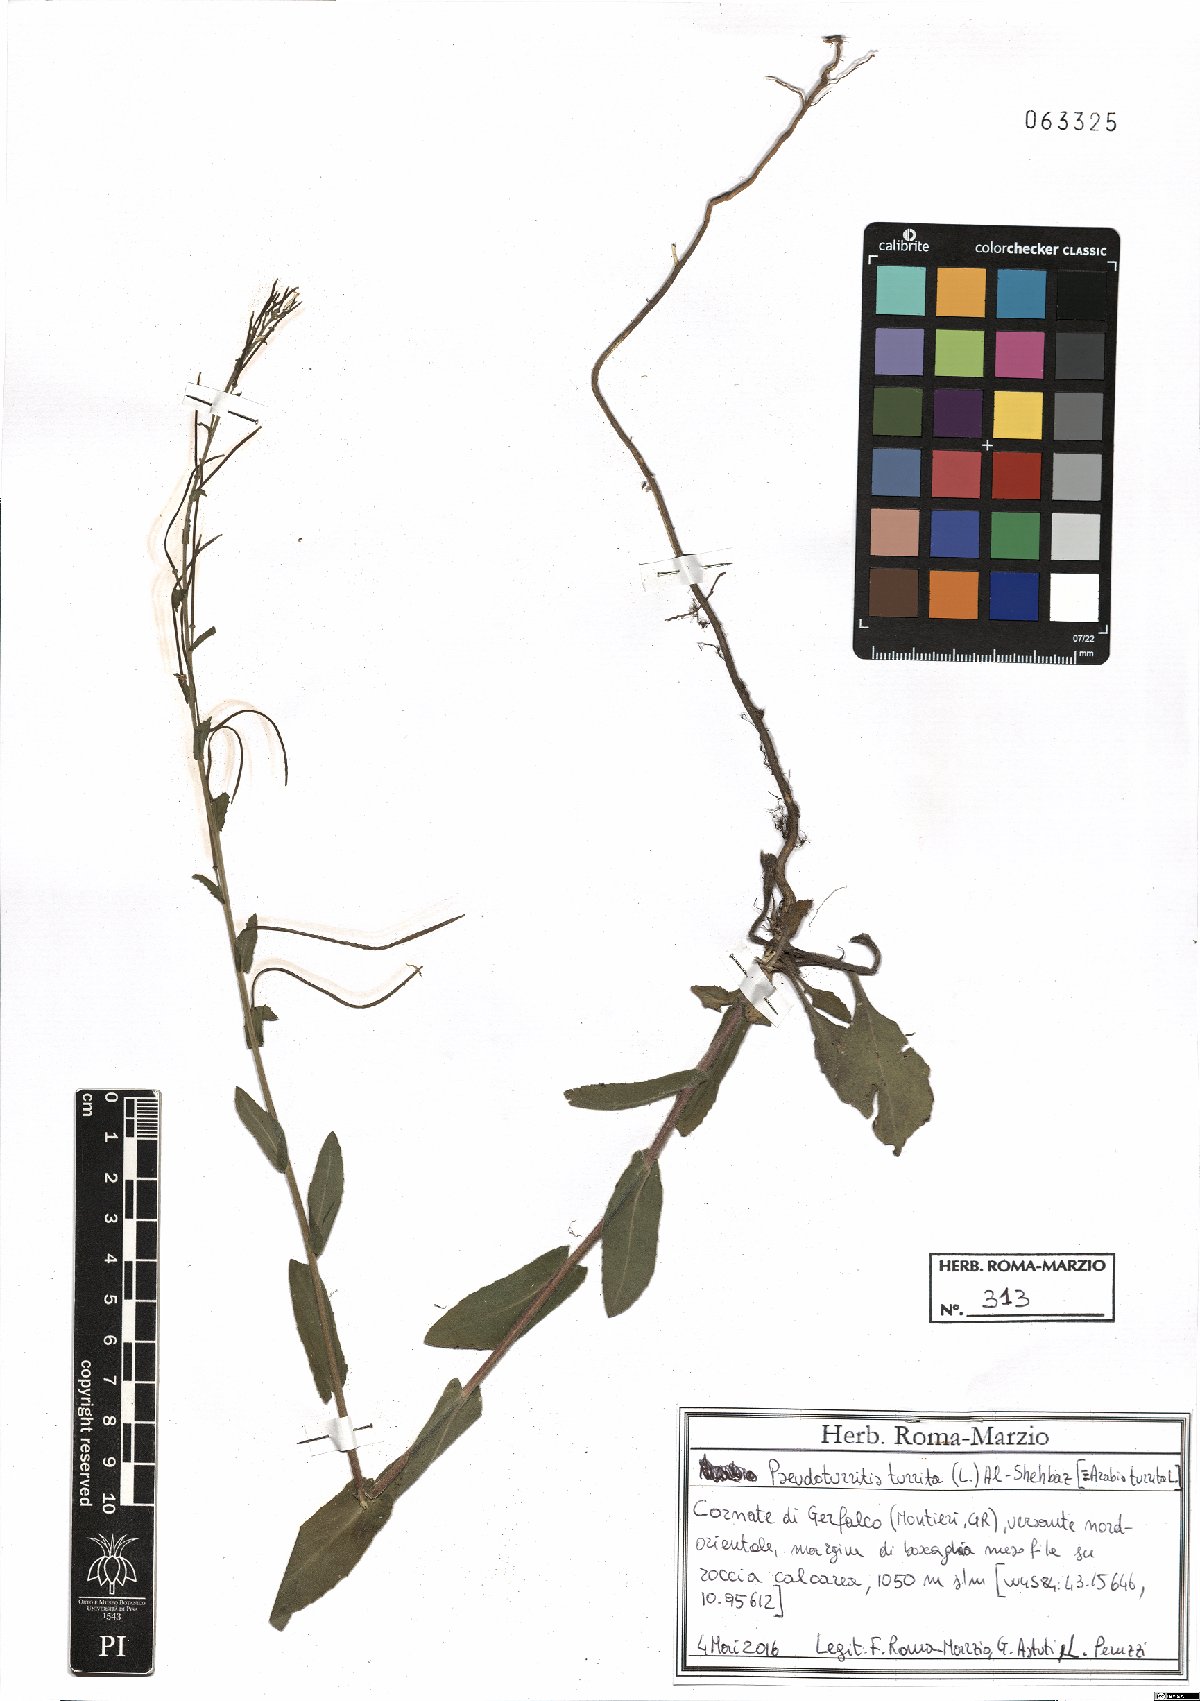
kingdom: Plantae
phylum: Tracheophyta
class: Magnoliopsida
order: Brassicales
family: Brassicaceae
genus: Pseudoturritis
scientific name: Pseudoturritis turrita
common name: Tower cress
